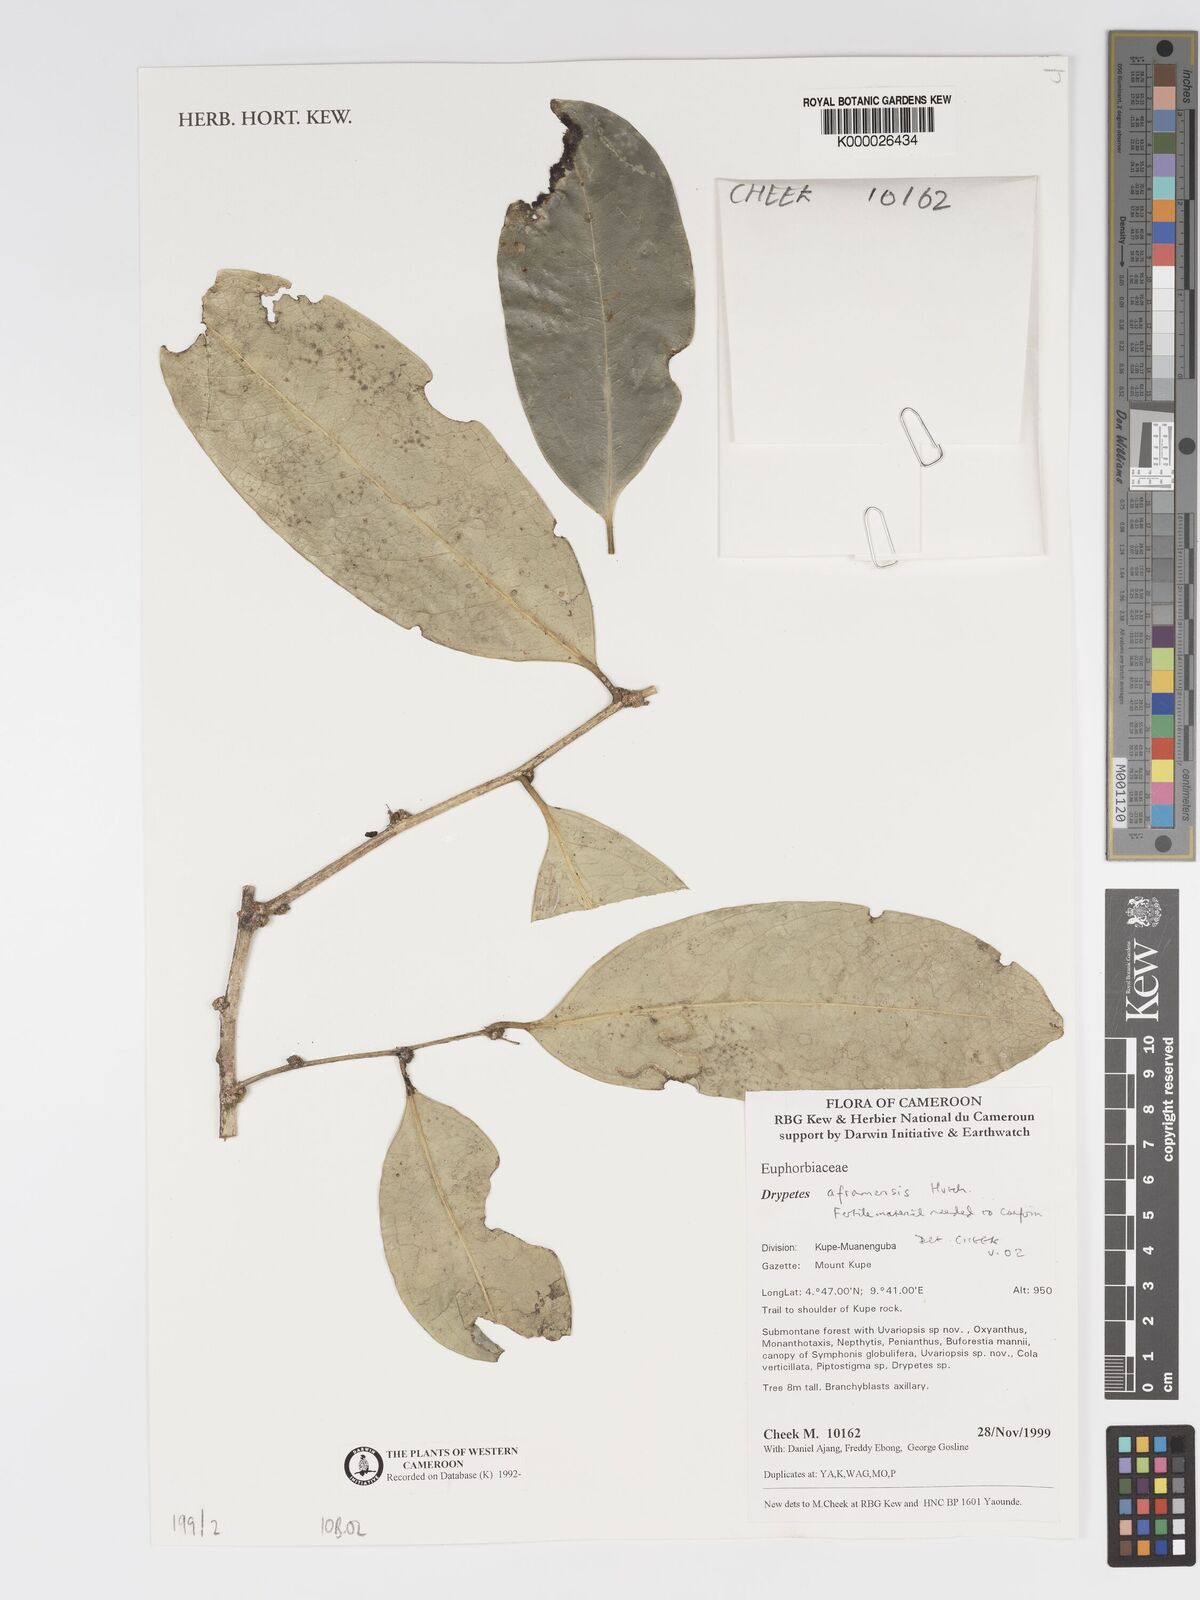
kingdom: Plantae
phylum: Tracheophyta
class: Magnoliopsida
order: Malpighiales
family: Putranjivaceae
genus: Drypetes
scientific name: Drypetes aframensis
